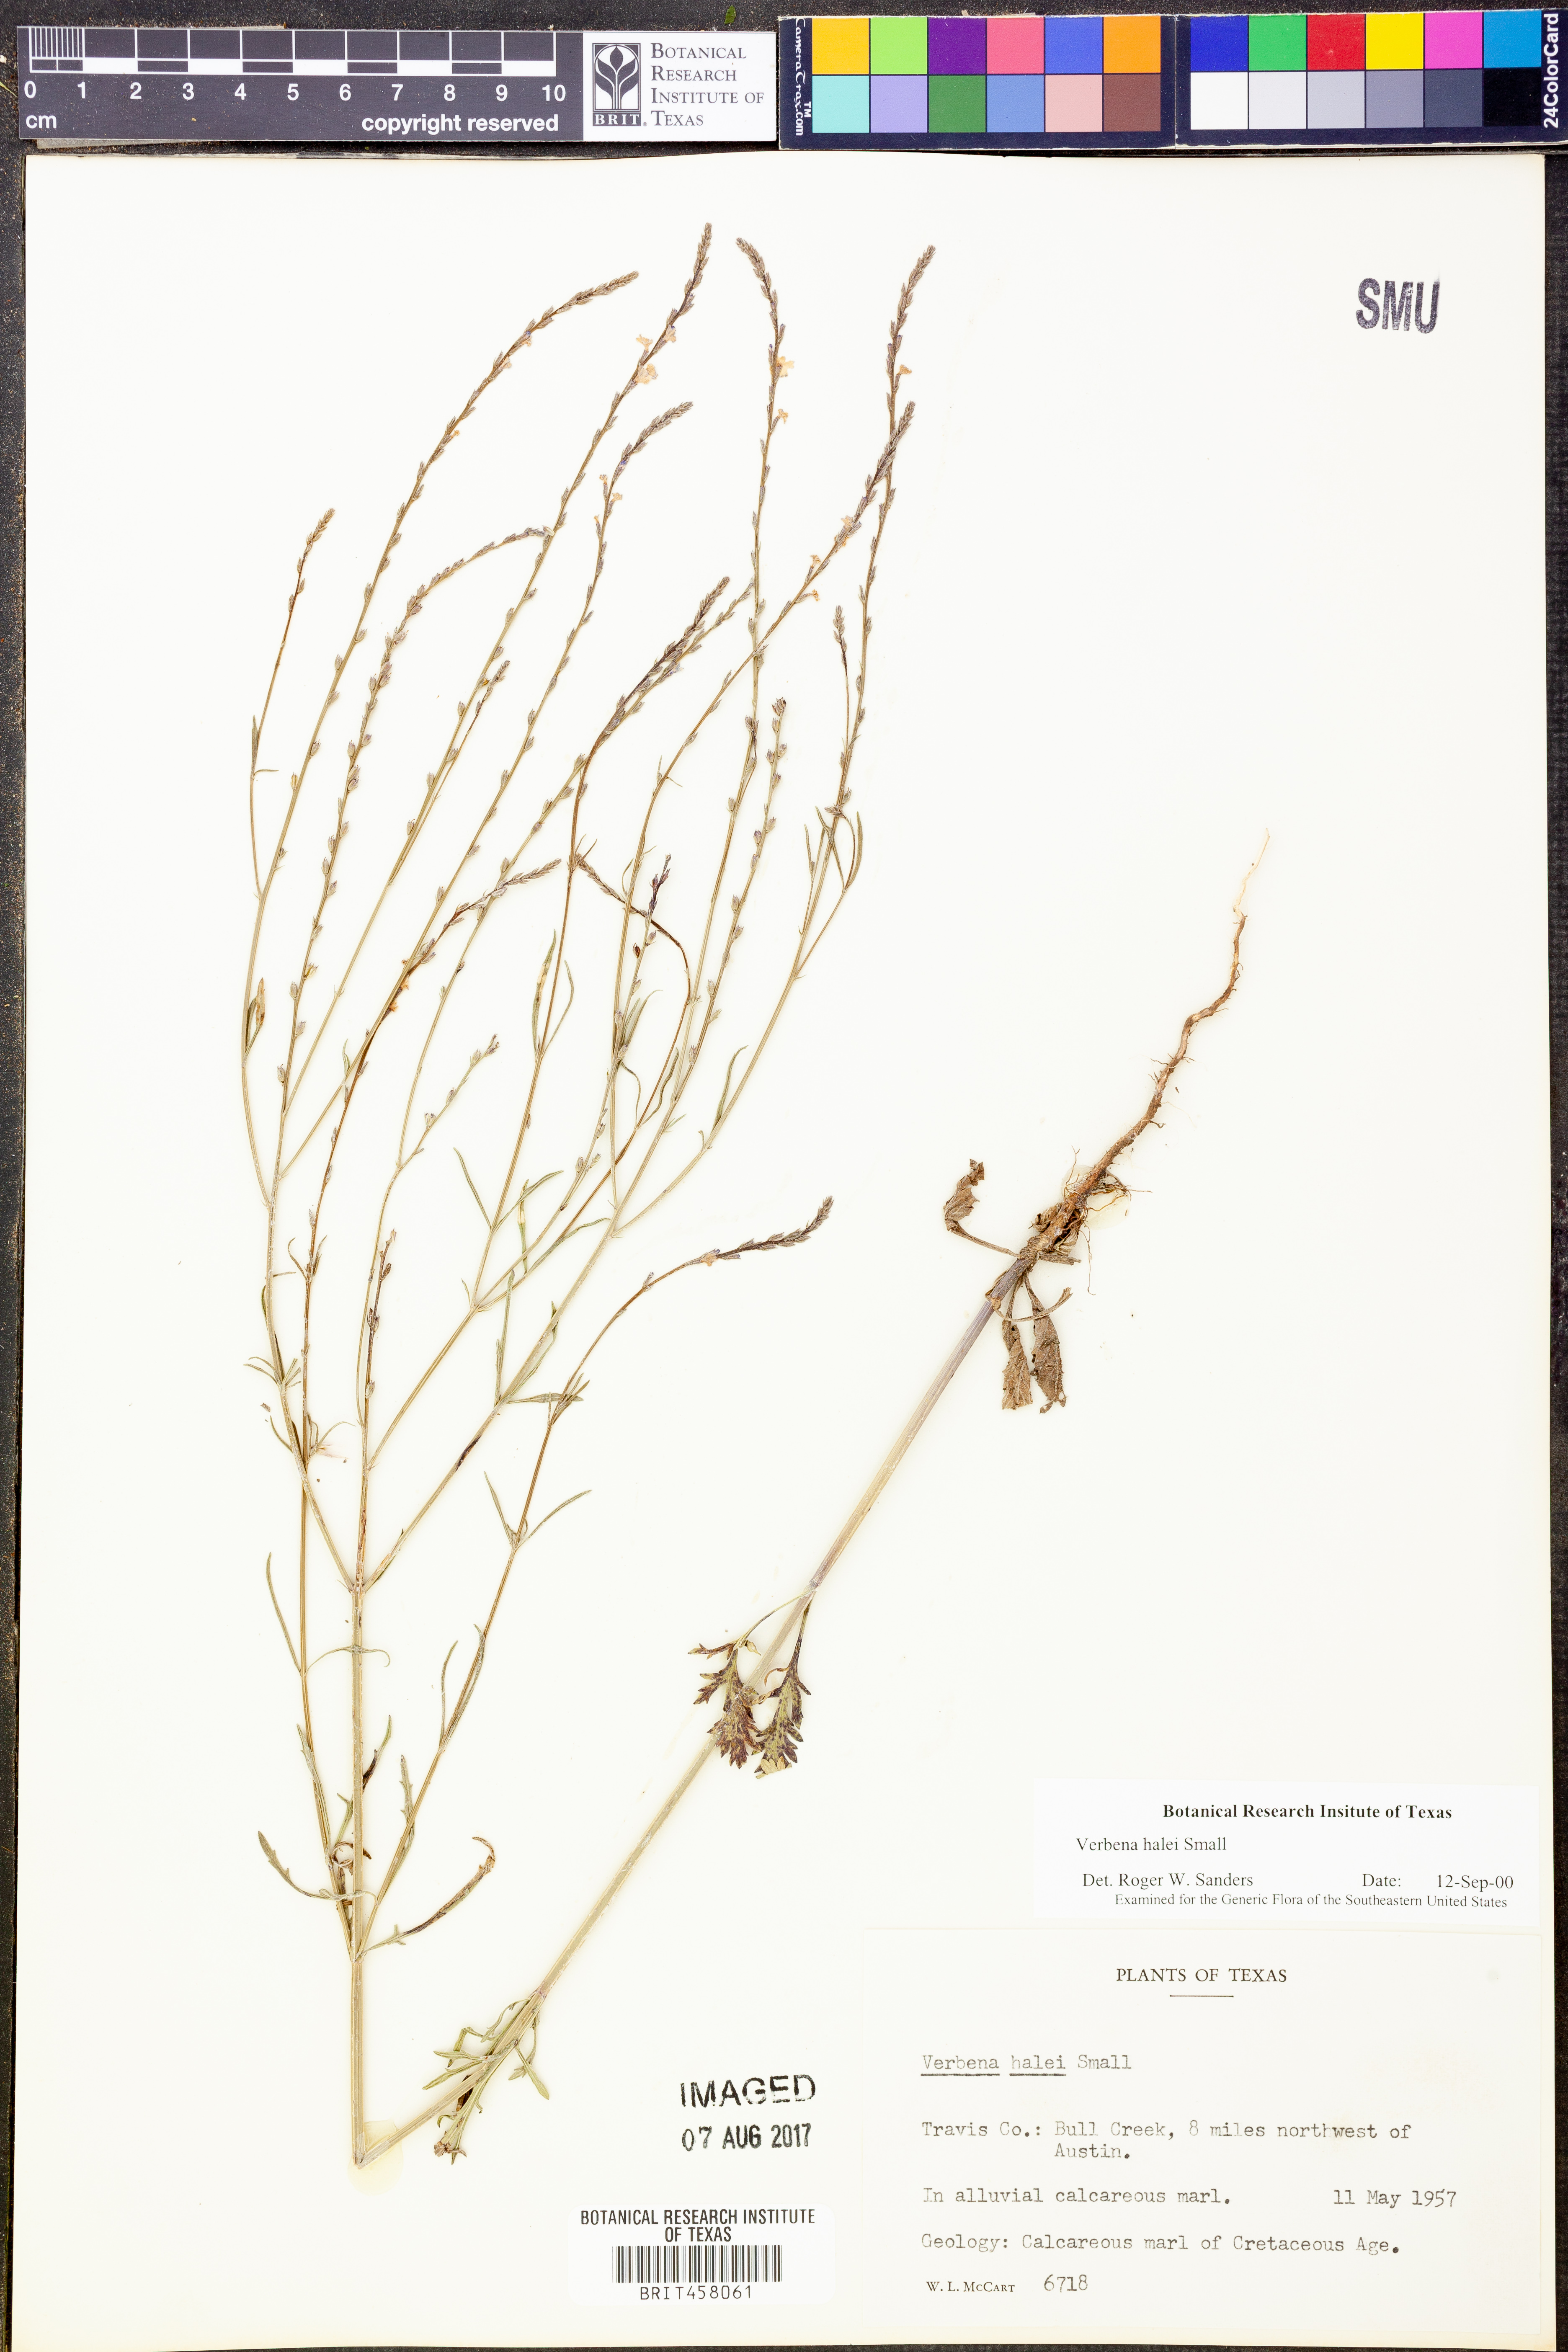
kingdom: Plantae
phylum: Tracheophyta
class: Magnoliopsida
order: Lamiales
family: Verbenaceae
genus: Verbena
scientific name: Verbena halei
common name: Texas vervain
